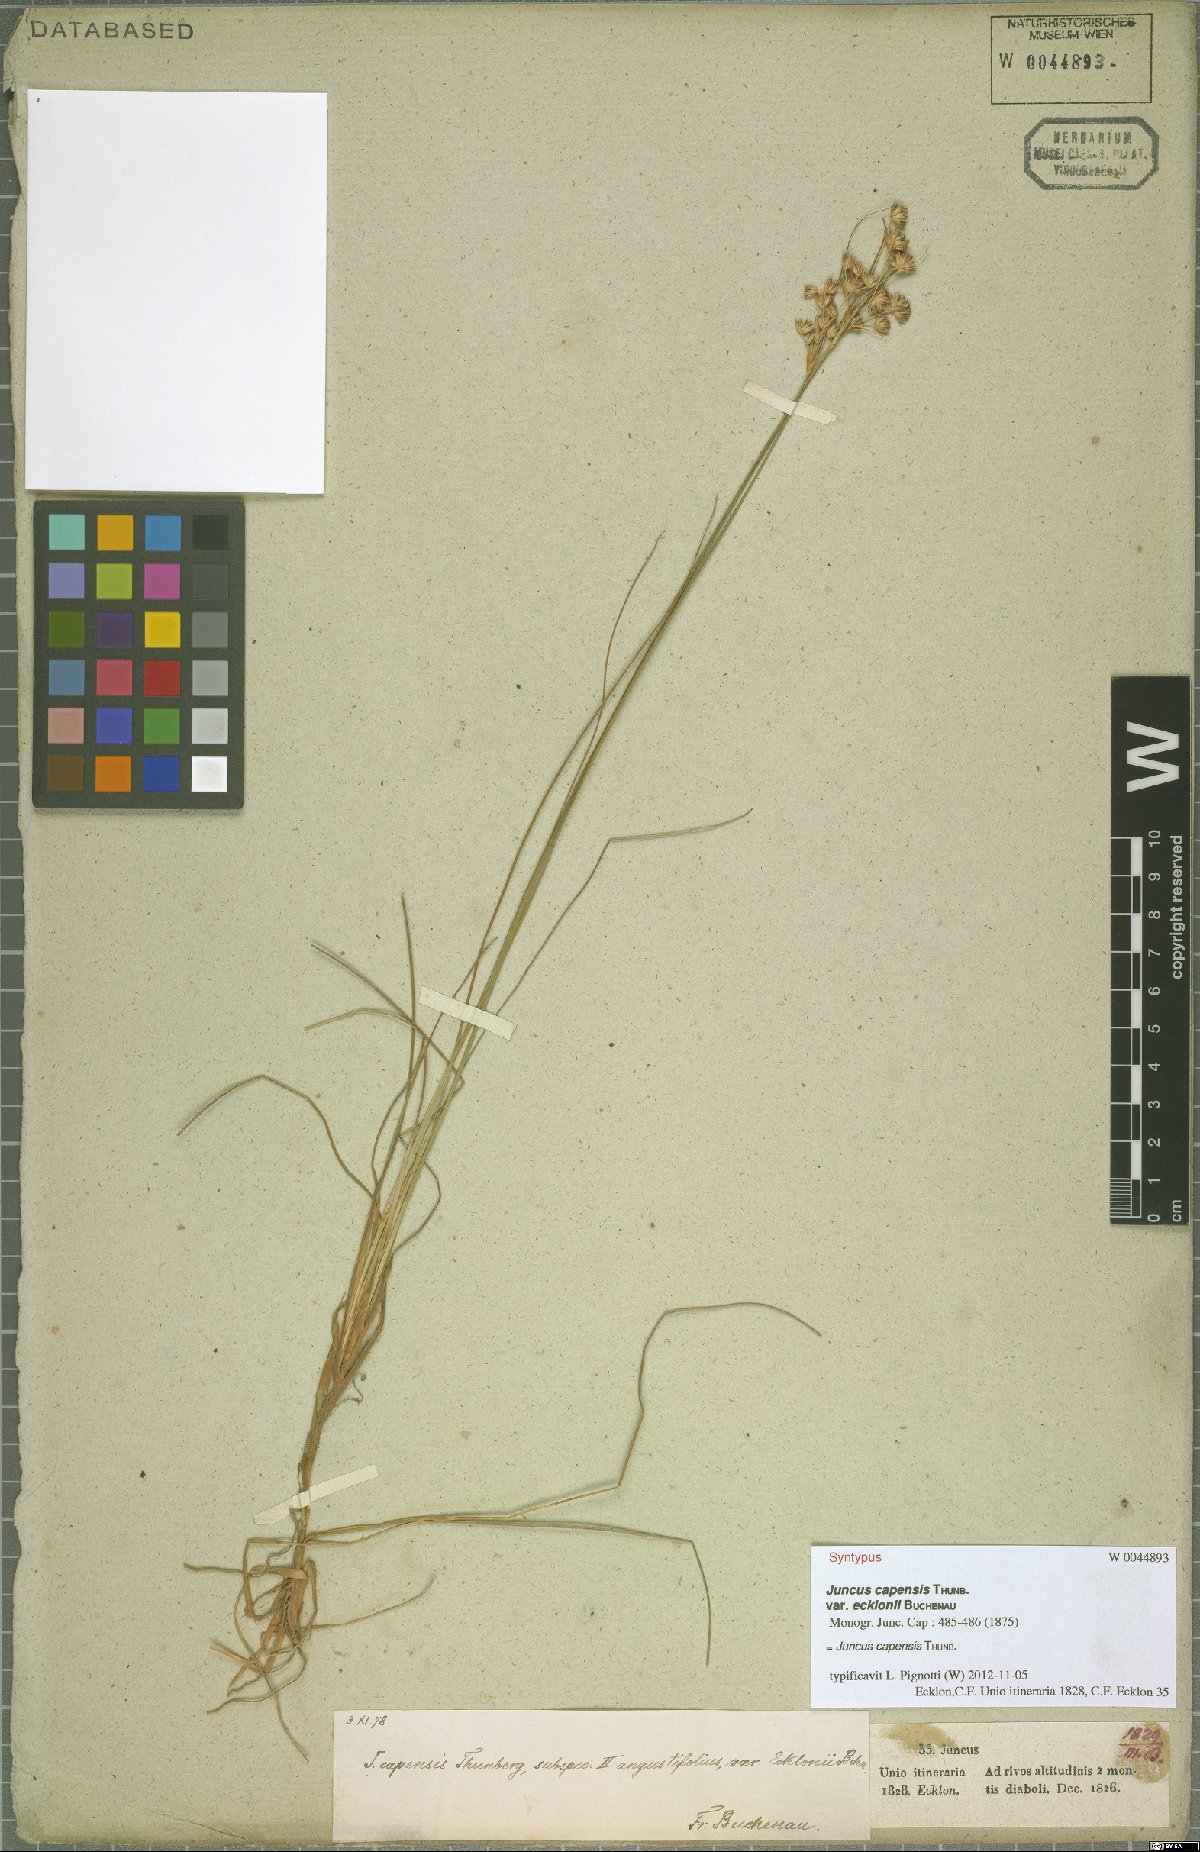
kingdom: Plantae
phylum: Tracheophyta
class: Liliopsida
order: Poales
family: Juncaceae
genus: Juncus
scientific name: Juncus capensis
